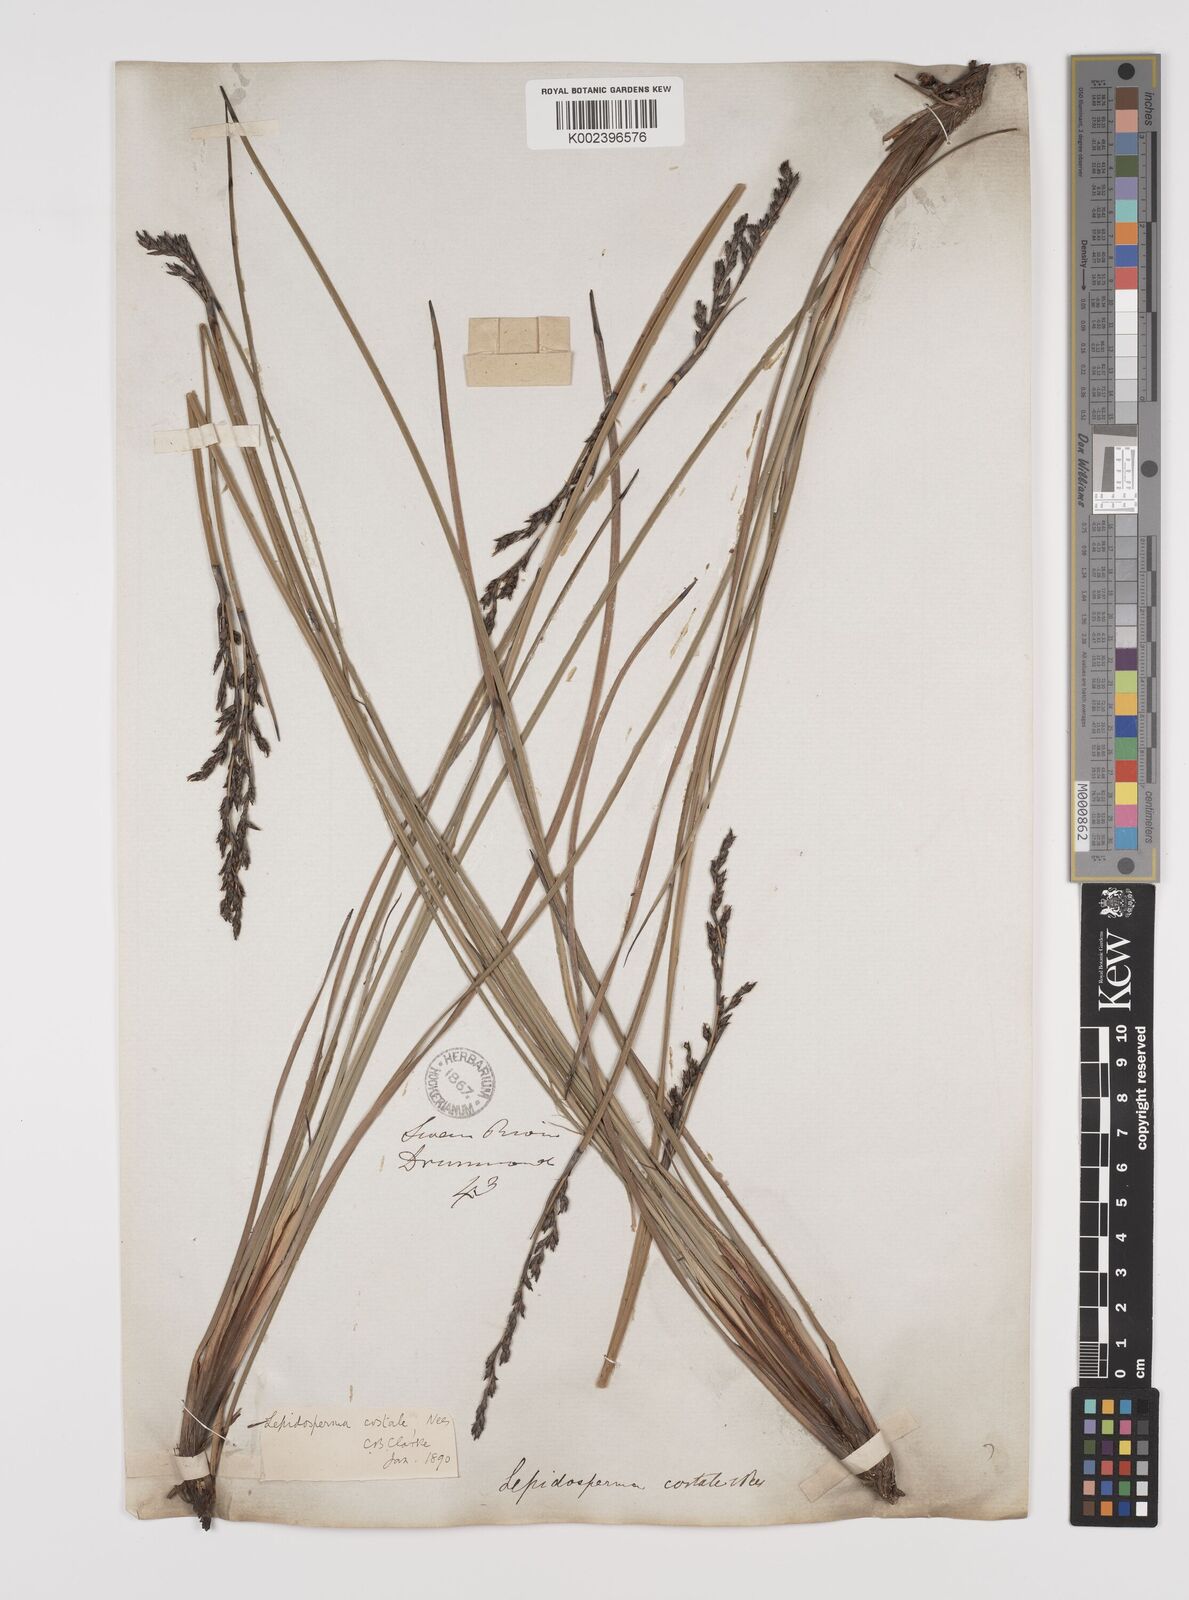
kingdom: Plantae
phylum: Tracheophyta
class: Liliopsida
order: Poales
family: Cyperaceae
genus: Lepidosperma
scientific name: Lepidosperma angustatum
